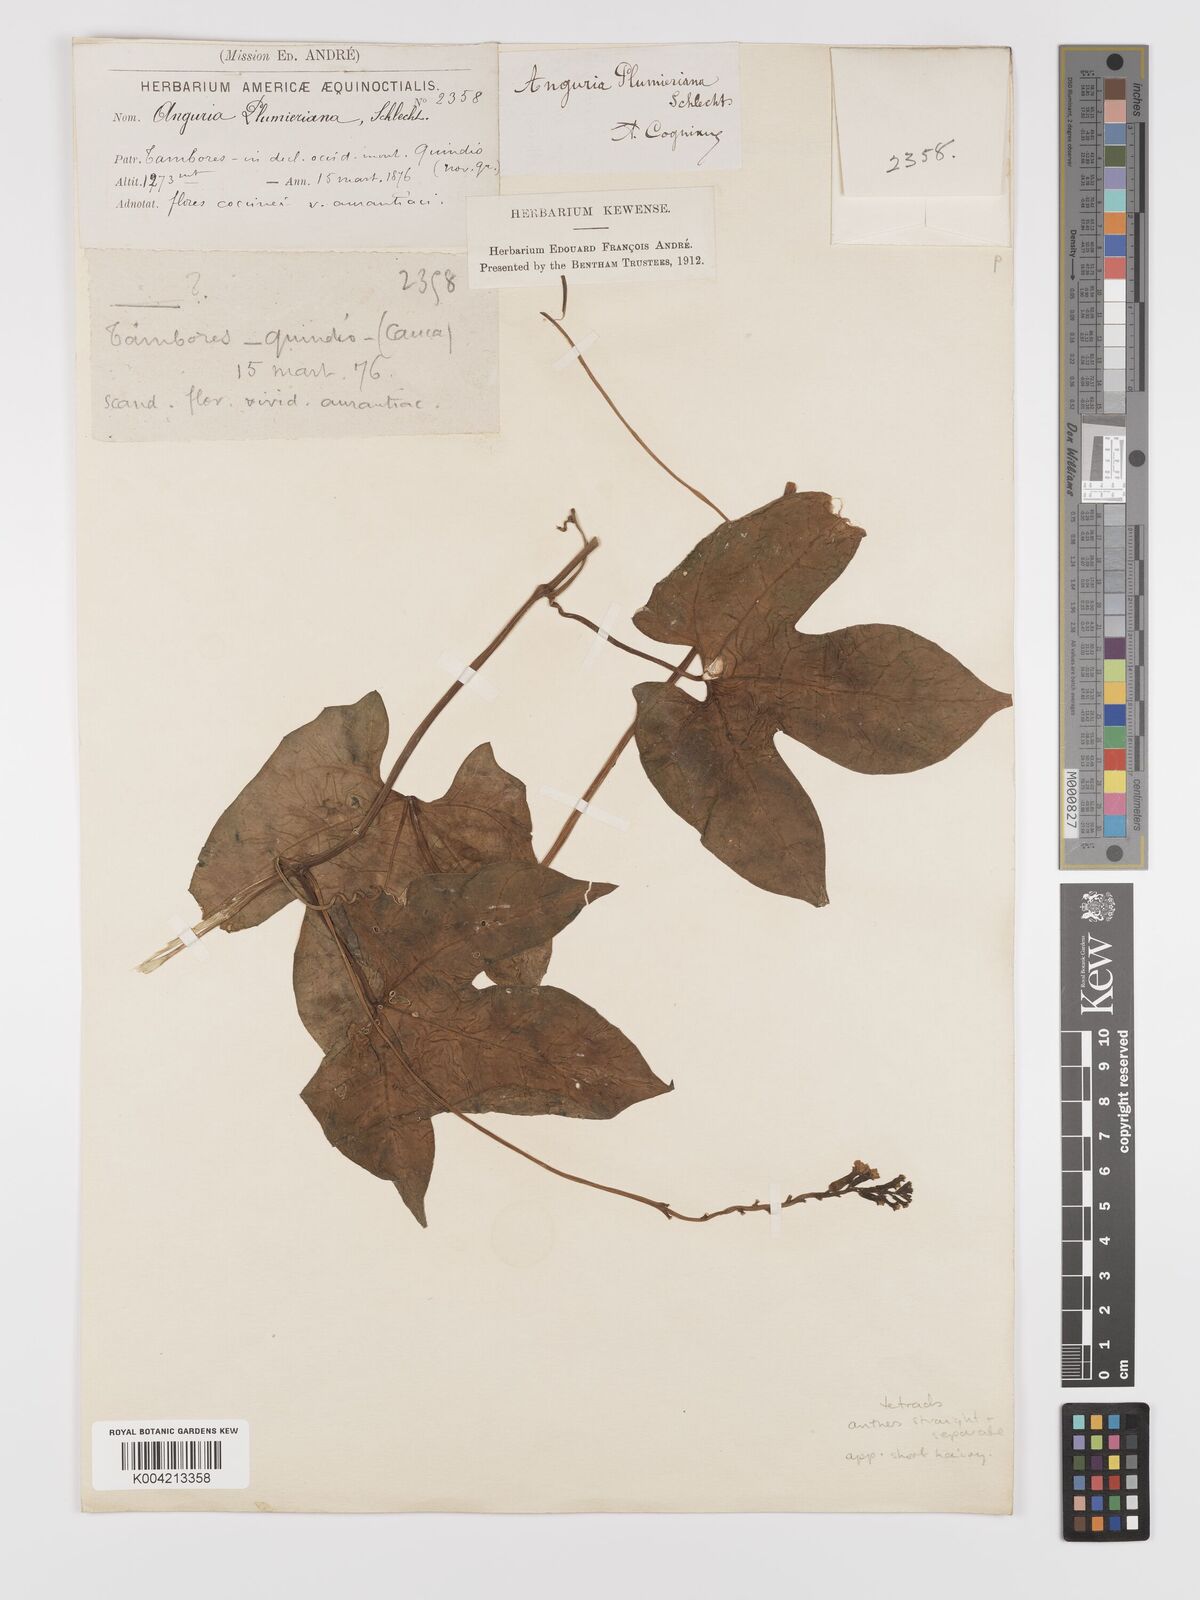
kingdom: Plantae
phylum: Tracheophyta
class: Magnoliopsida
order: Cucurbitales
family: Cucurbitaceae
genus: Psiguria
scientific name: Psiguria warscewiczii
